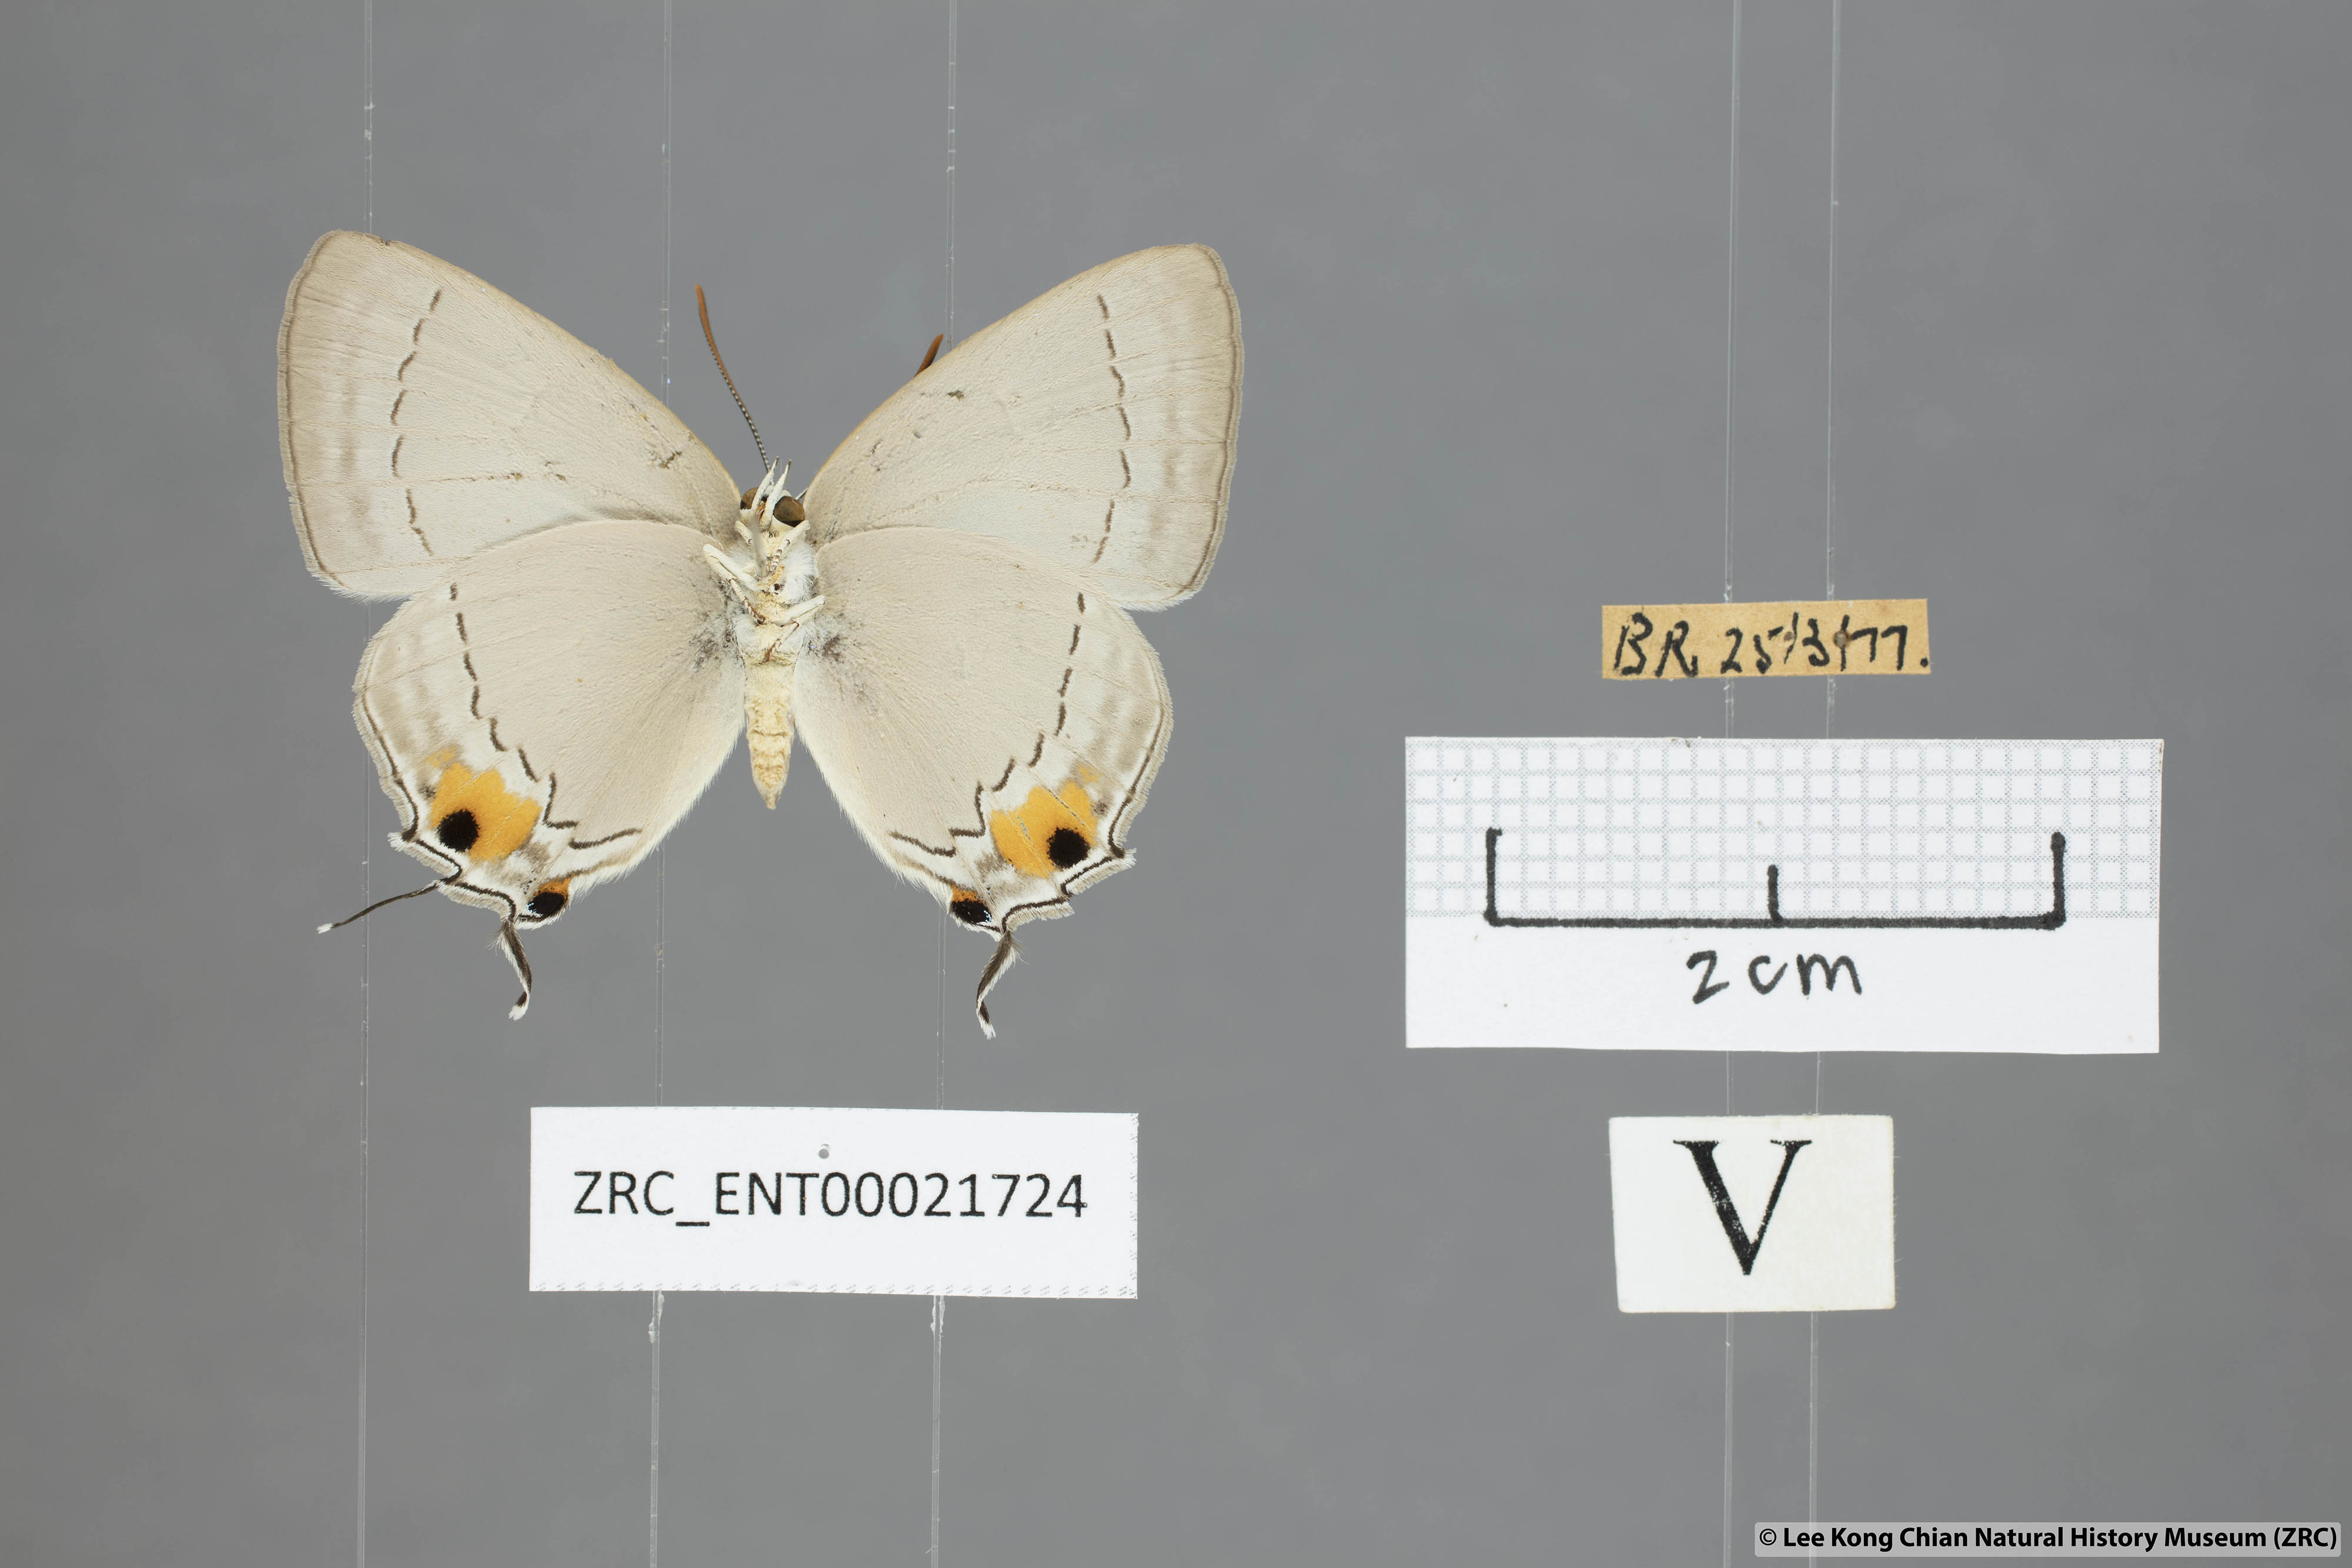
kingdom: Animalia
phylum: Arthropoda
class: Insecta
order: Lepidoptera
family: Lycaenidae
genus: Pratapa
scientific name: Pratapa deva
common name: White royal
